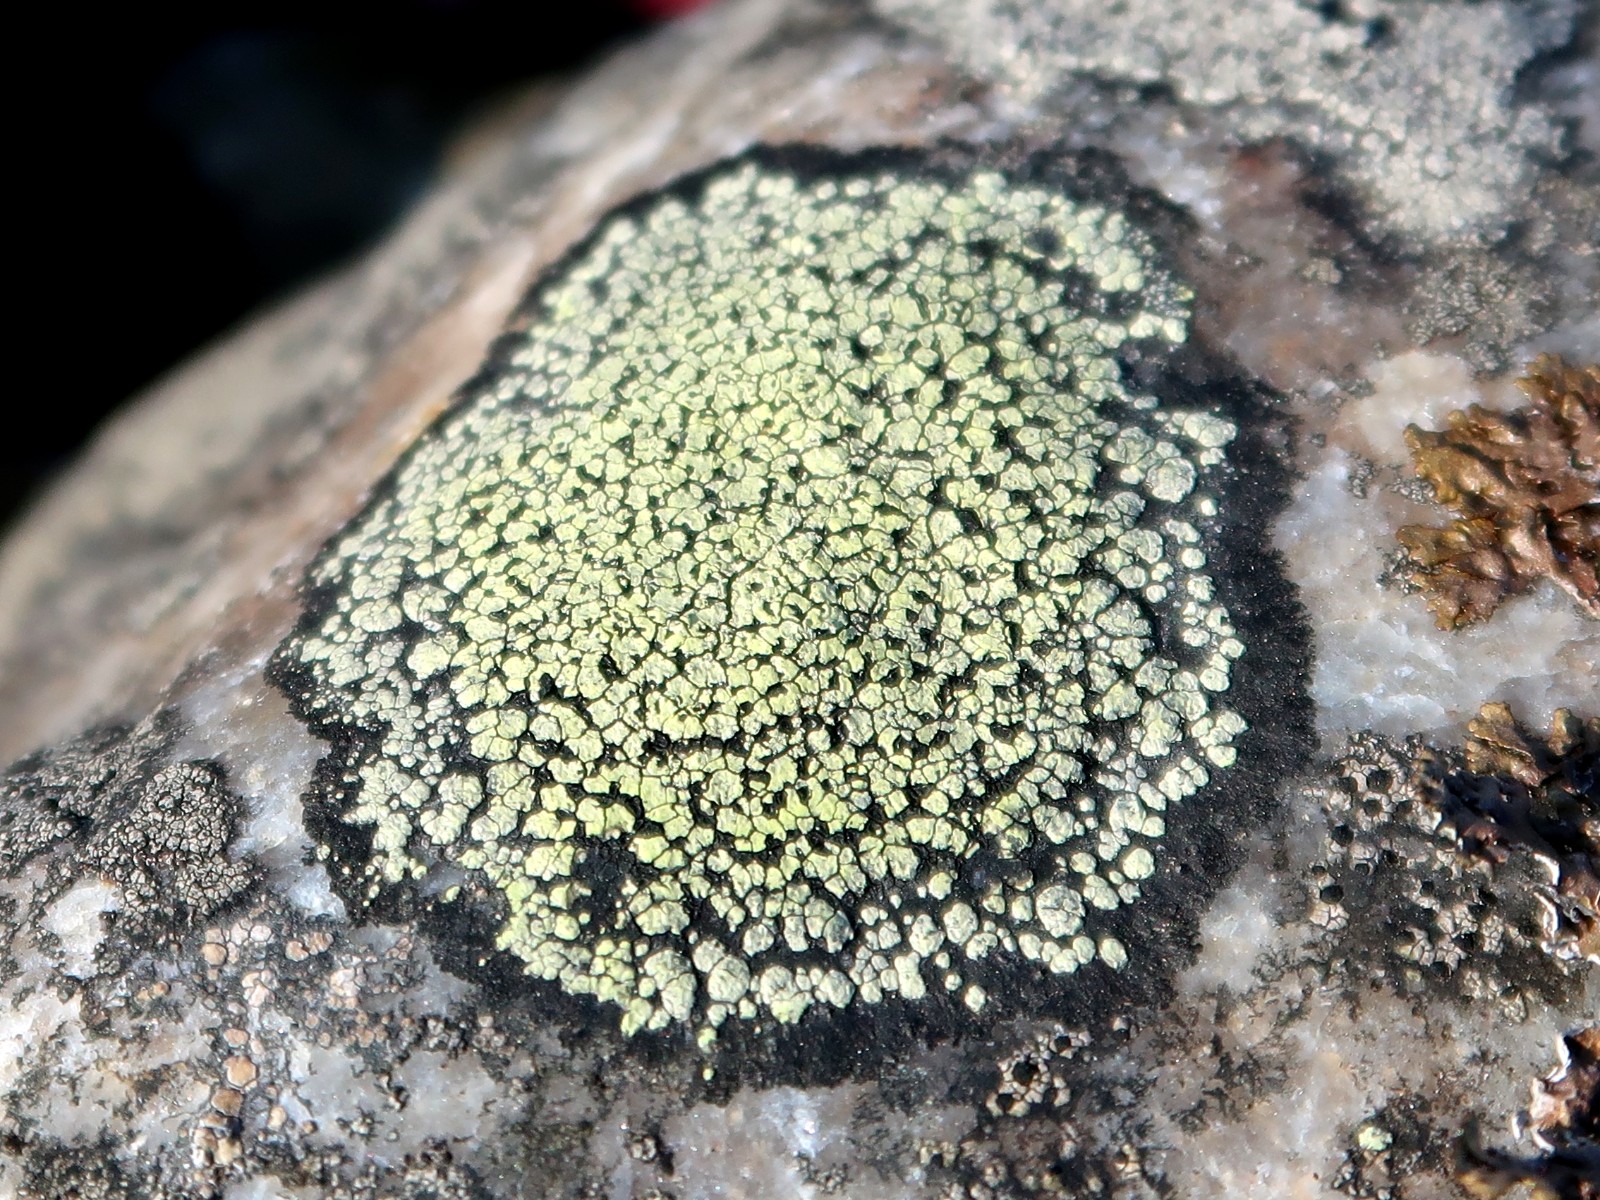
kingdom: Fungi
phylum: Ascomycota
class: Lecanoromycetes
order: Rhizocarpales
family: Rhizocarpaceae
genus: Rhizocarpon
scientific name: Rhizocarpon geographicum
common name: gulgrøn landkortlav
